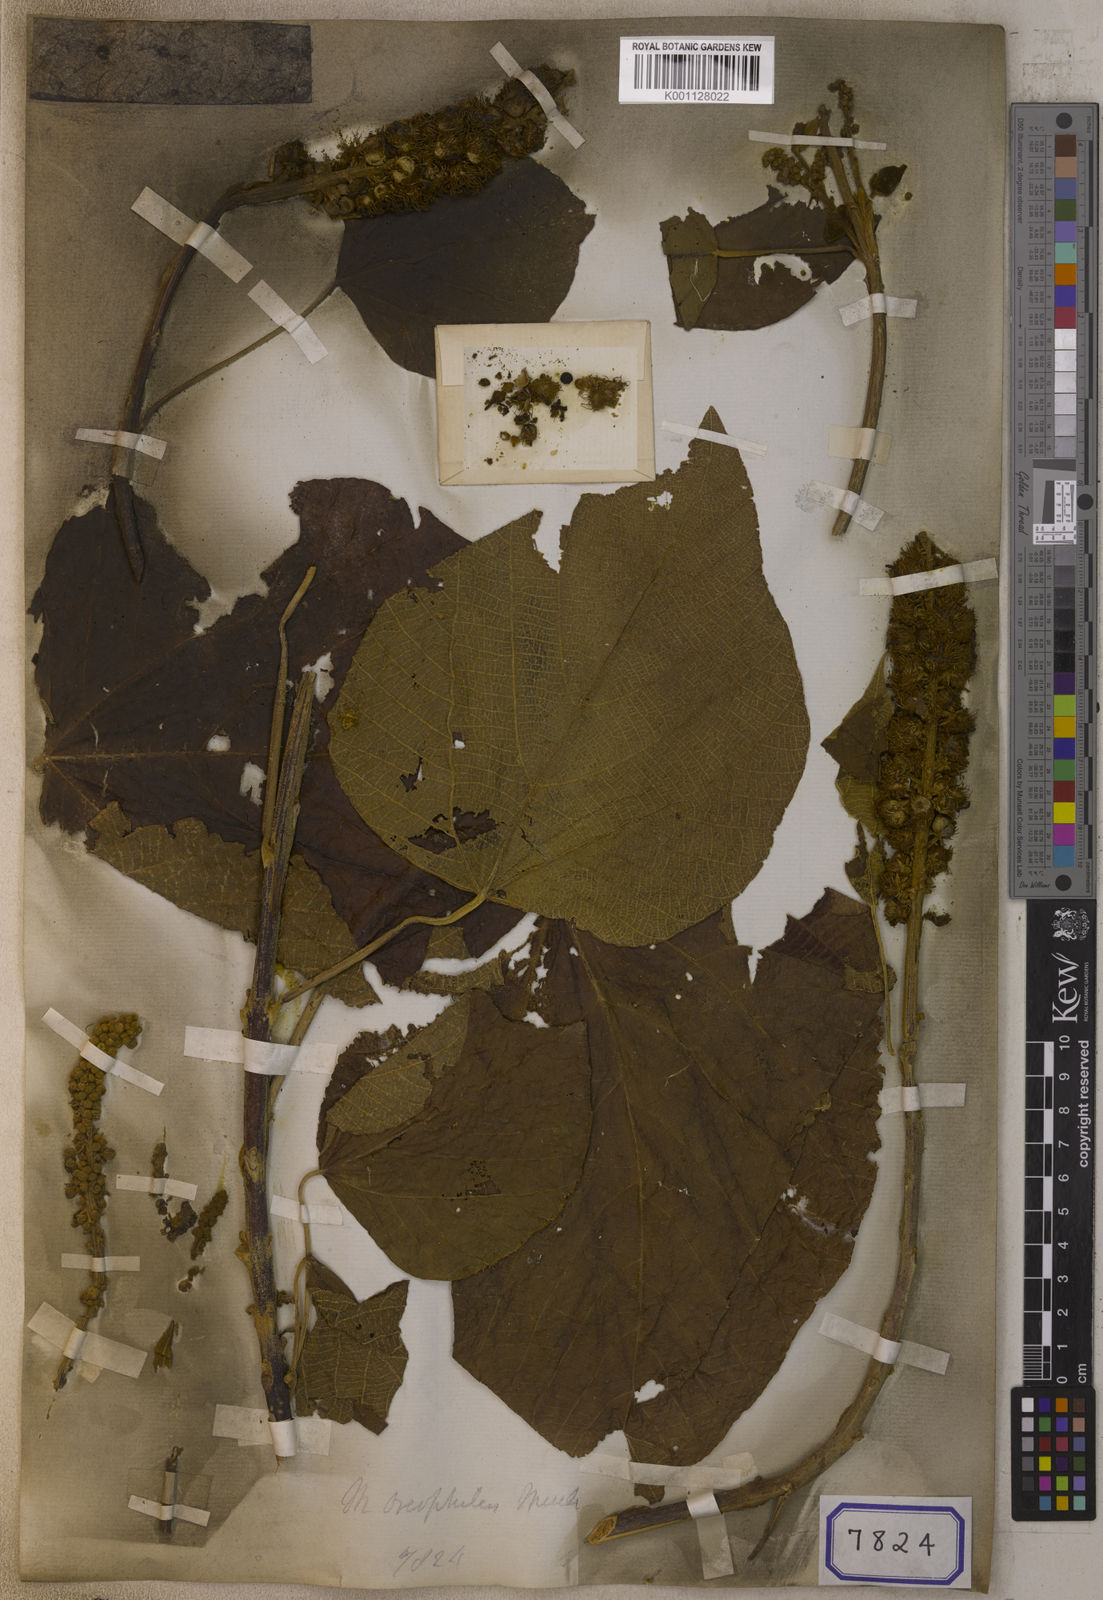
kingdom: Plantae
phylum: Tracheophyta
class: Magnoliopsida
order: Malpighiales
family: Euphorbiaceae
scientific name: Euphorbiaceae
